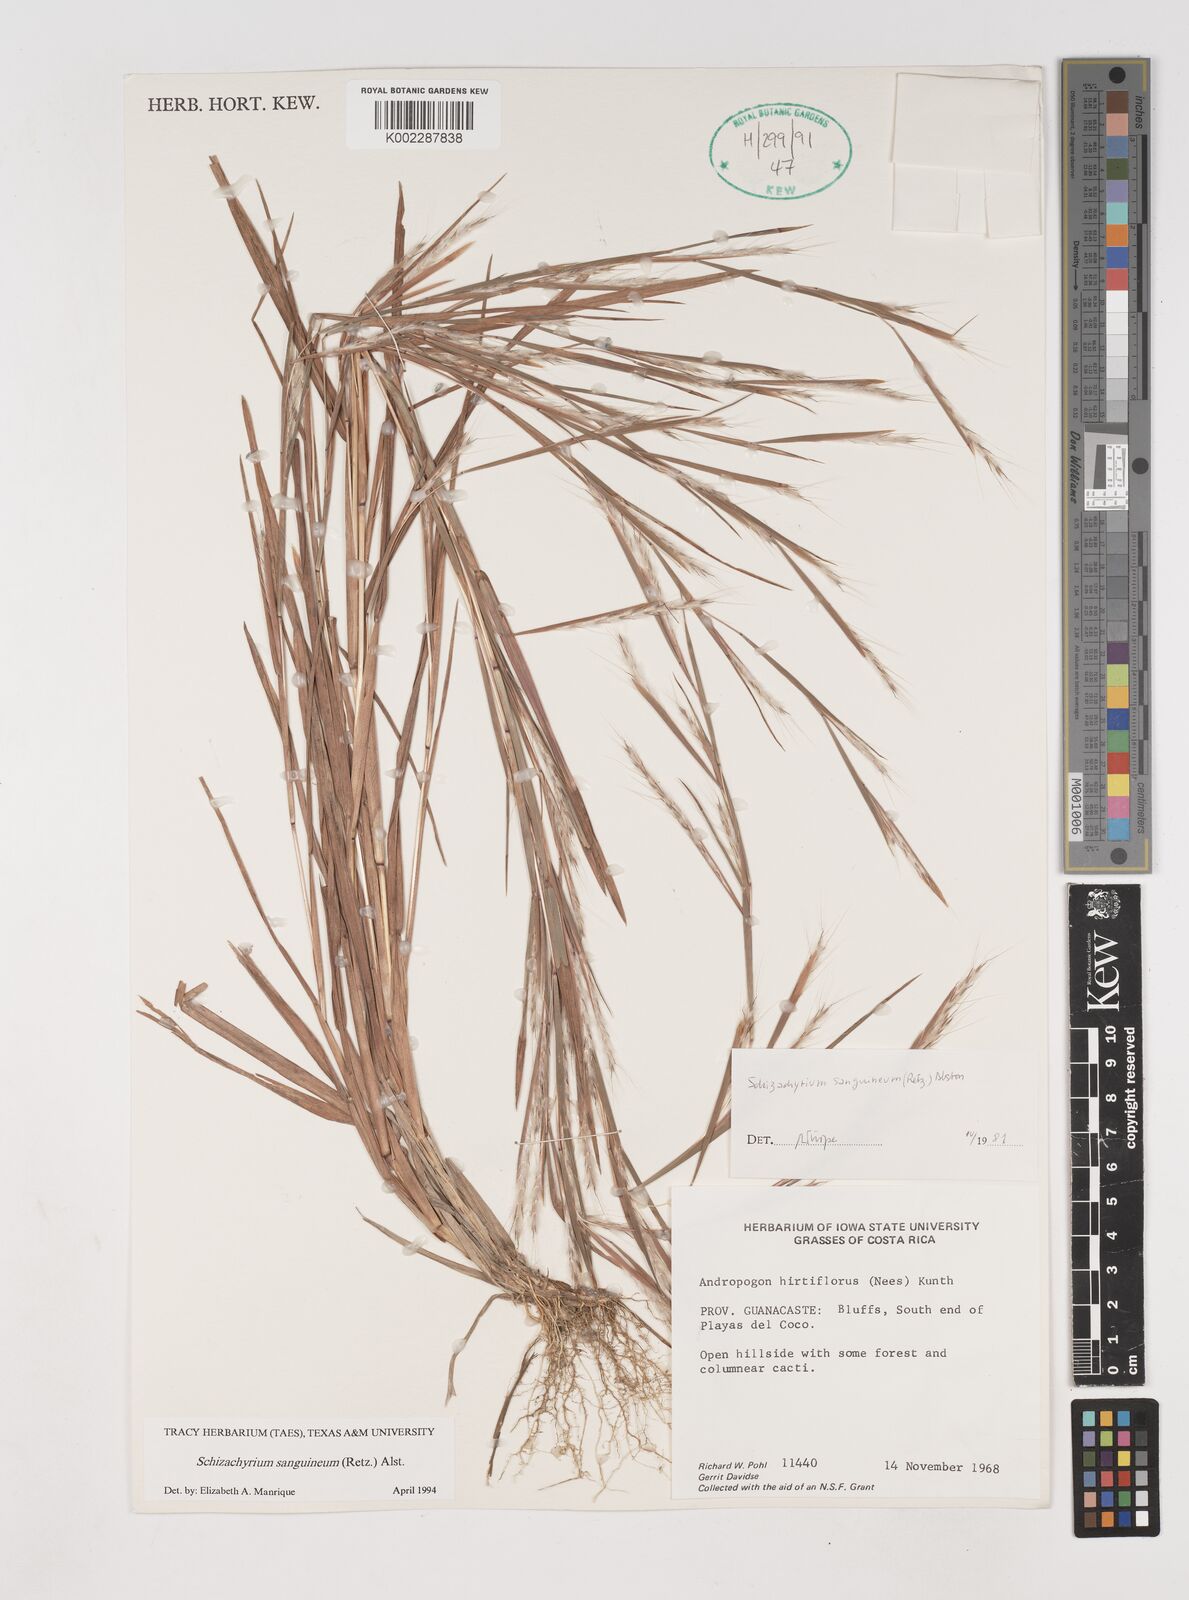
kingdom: Plantae
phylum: Tracheophyta
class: Liliopsida
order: Poales
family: Poaceae
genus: Schizachyrium
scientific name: Schizachyrium sanguineum
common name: Crimson bluestem
